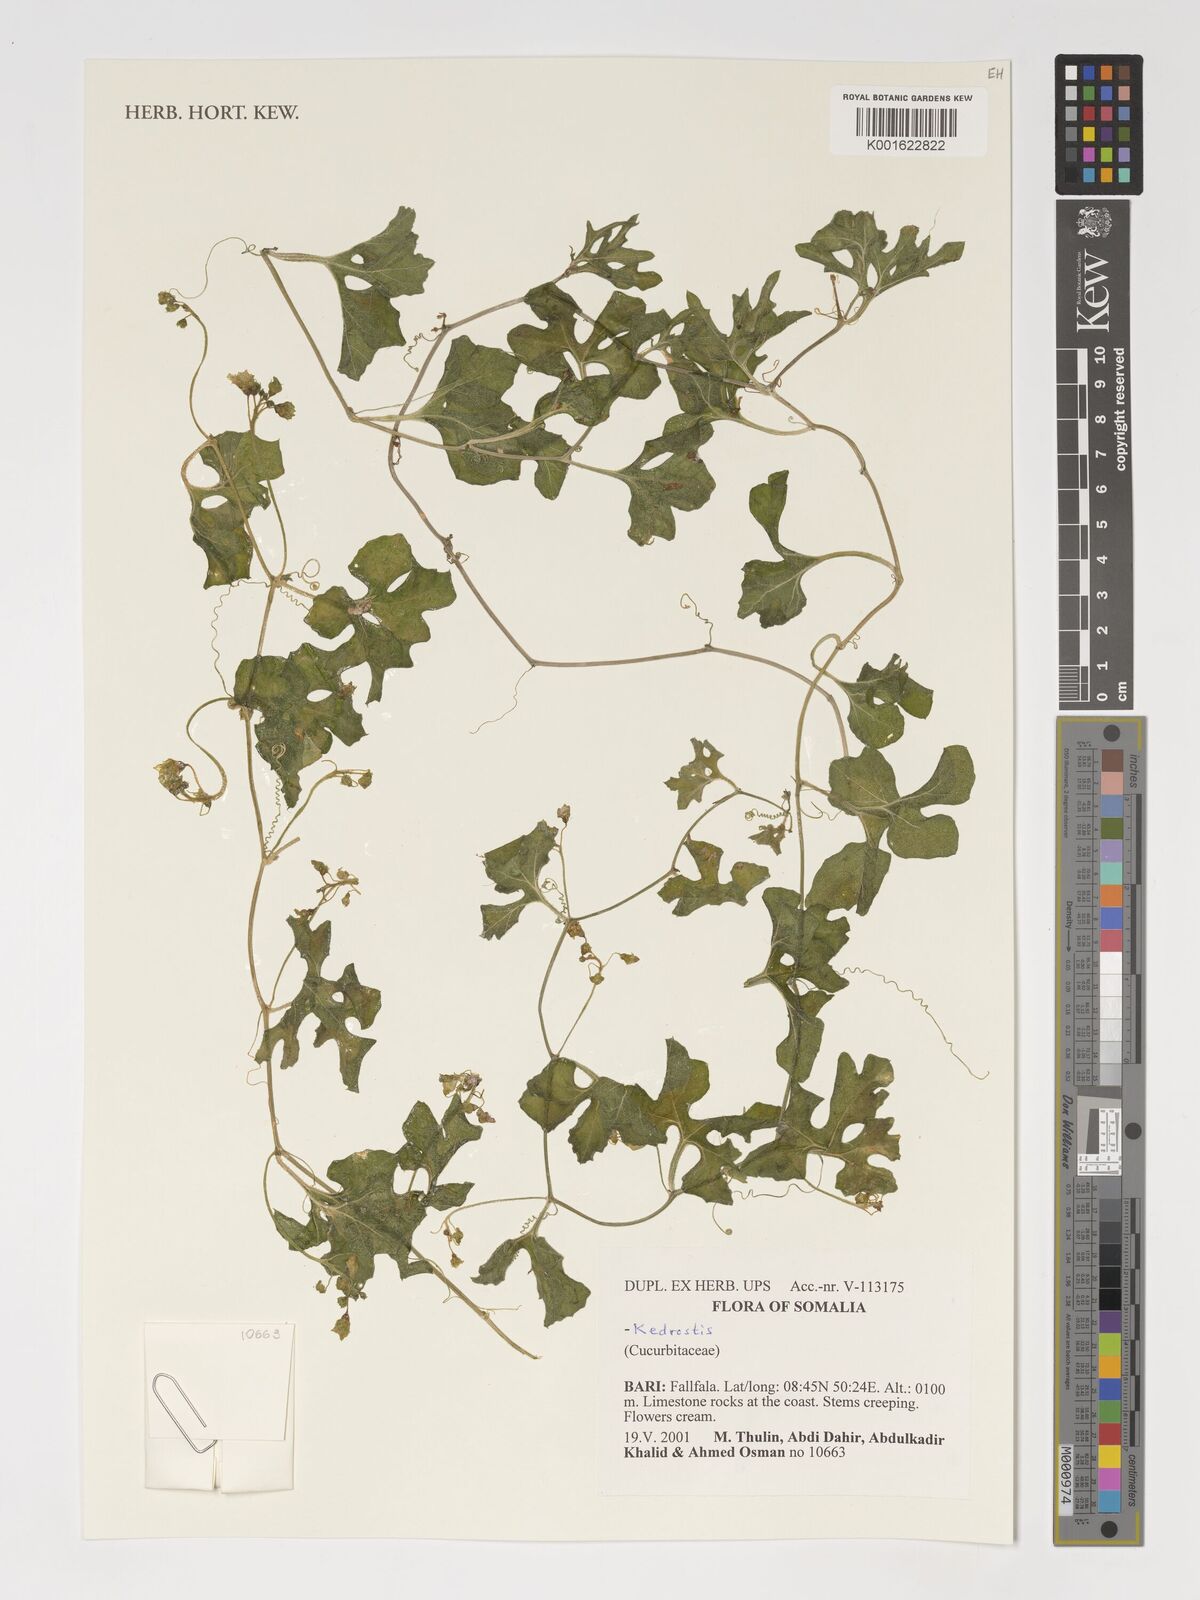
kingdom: Plantae
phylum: Tracheophyta
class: Magnoliopsida
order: Cucurbitales
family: Cucurbitaceae
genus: Kedrostis
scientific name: Kedrostis
